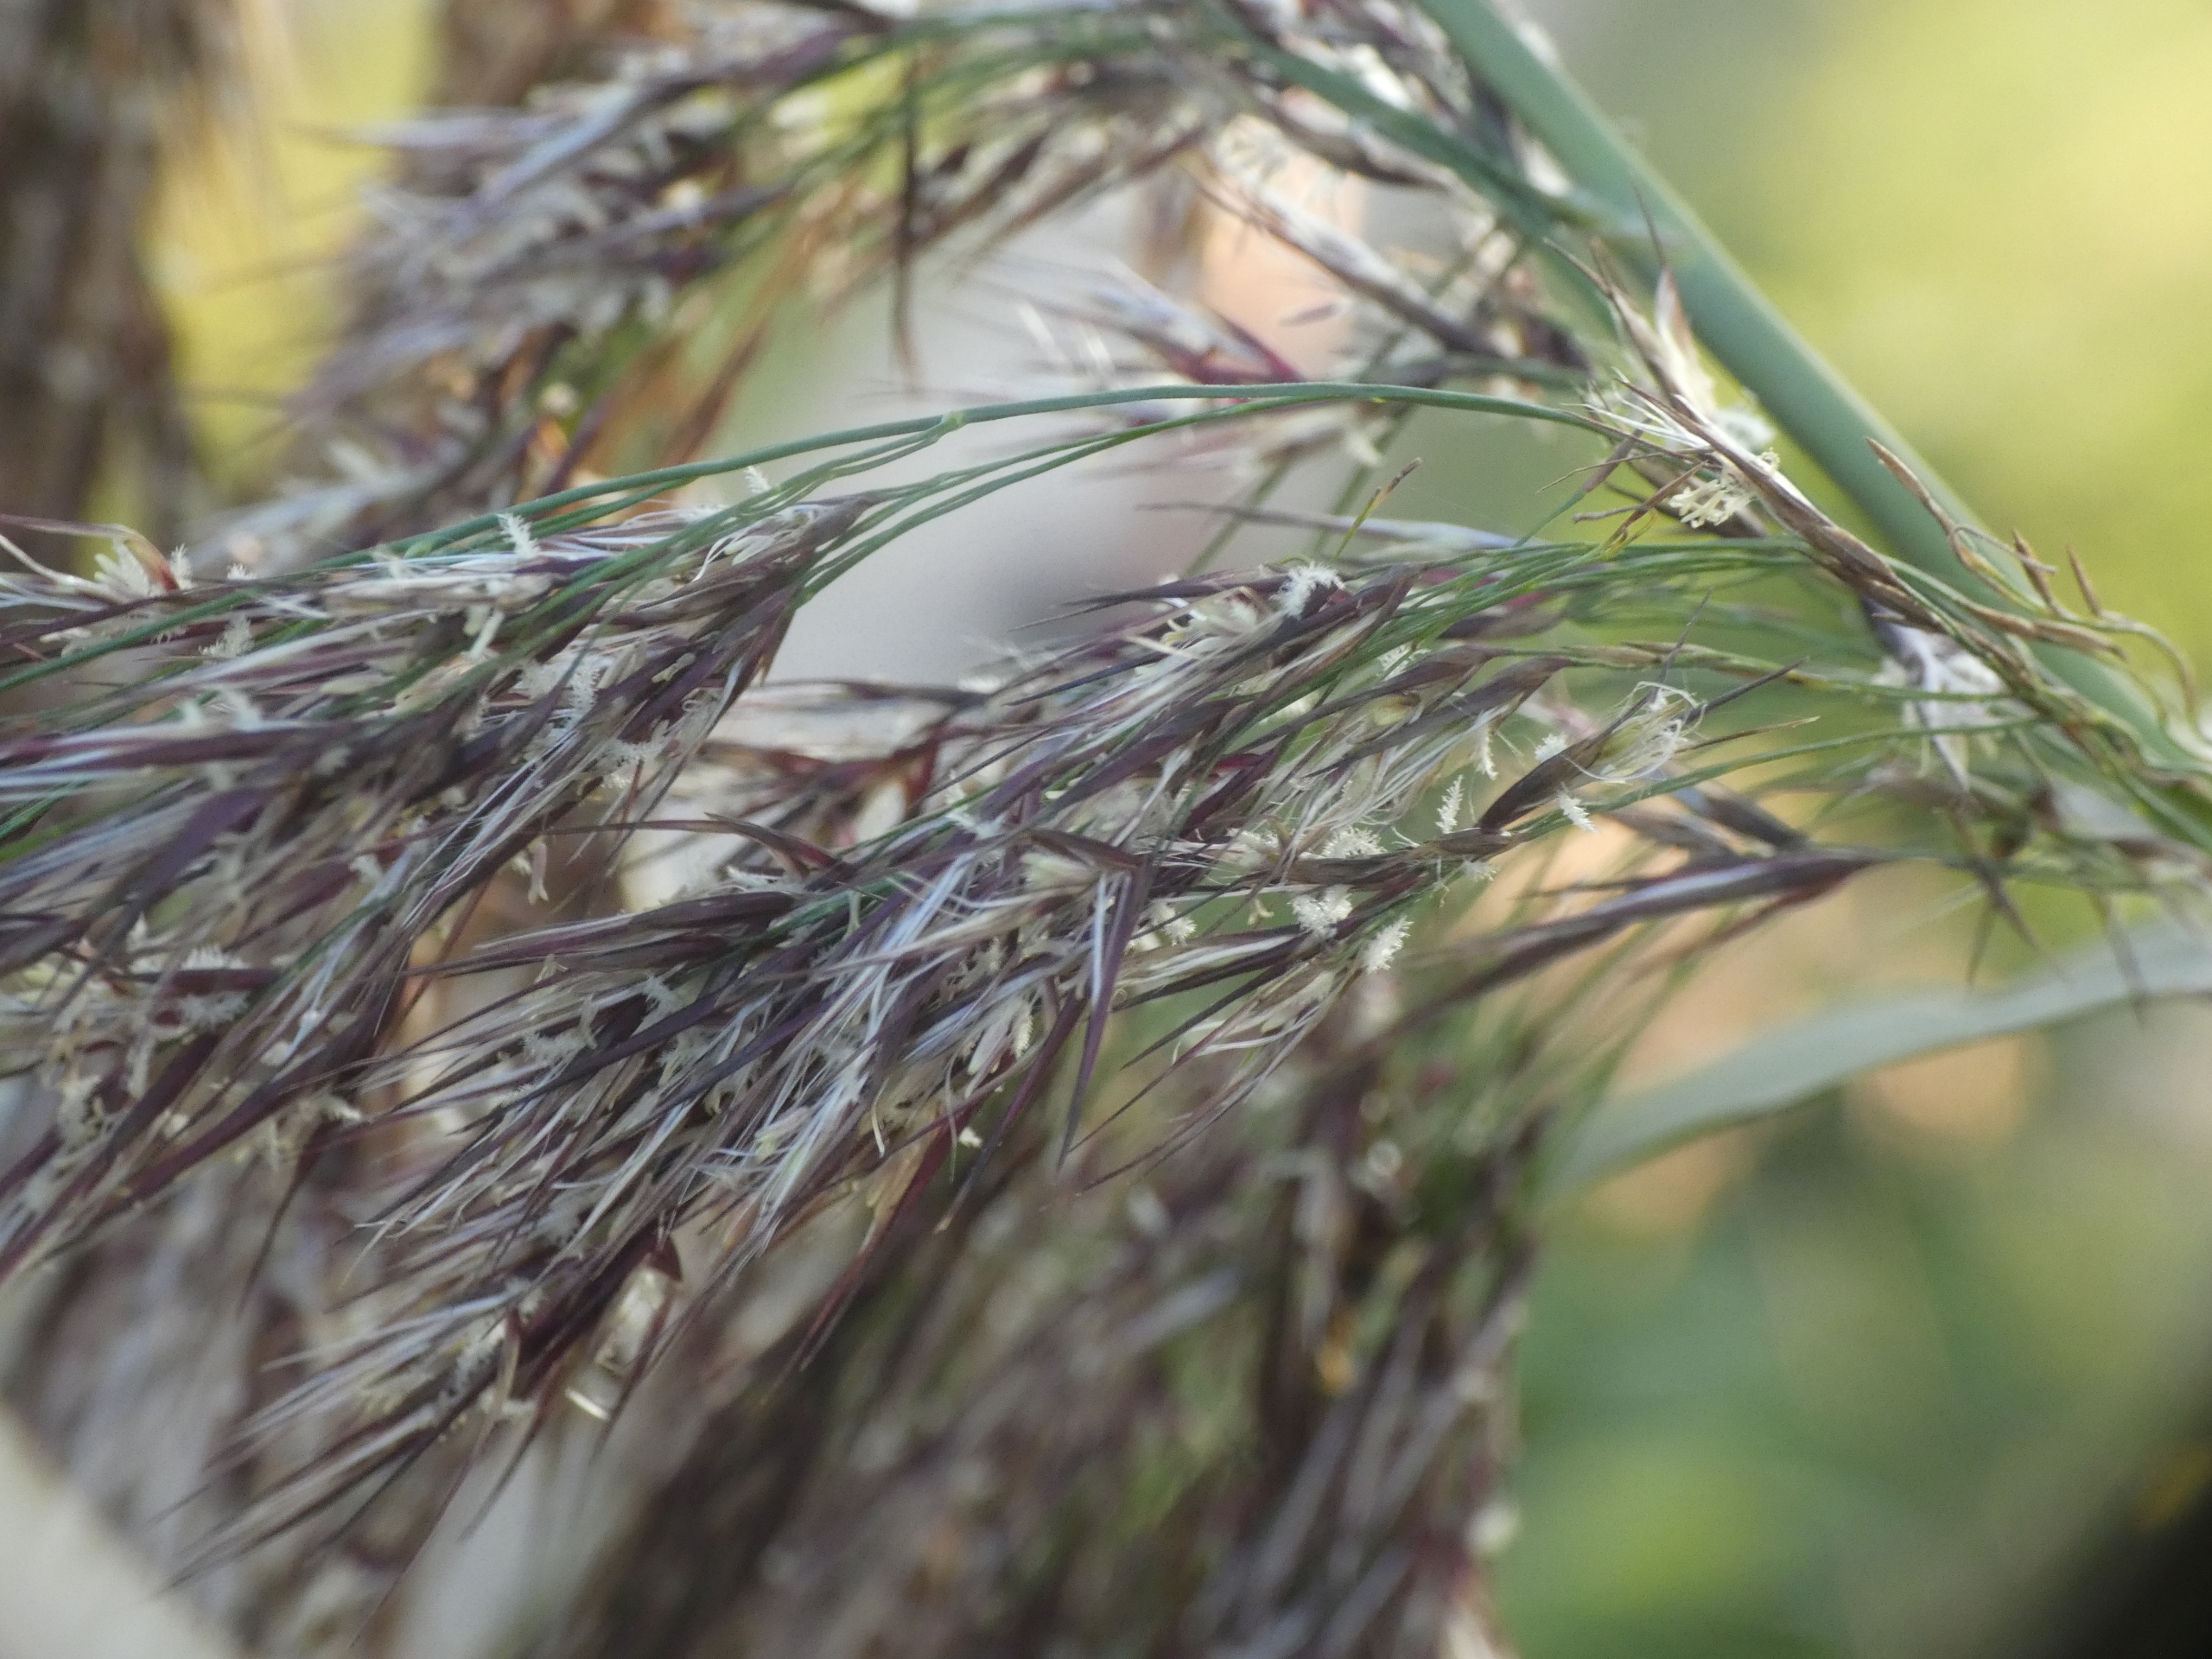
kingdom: Plantae
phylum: Tracheophyta
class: Liliopsida
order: Poales
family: Poaceae
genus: Phragmites
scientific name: Phragmites australis
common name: Tagrør
